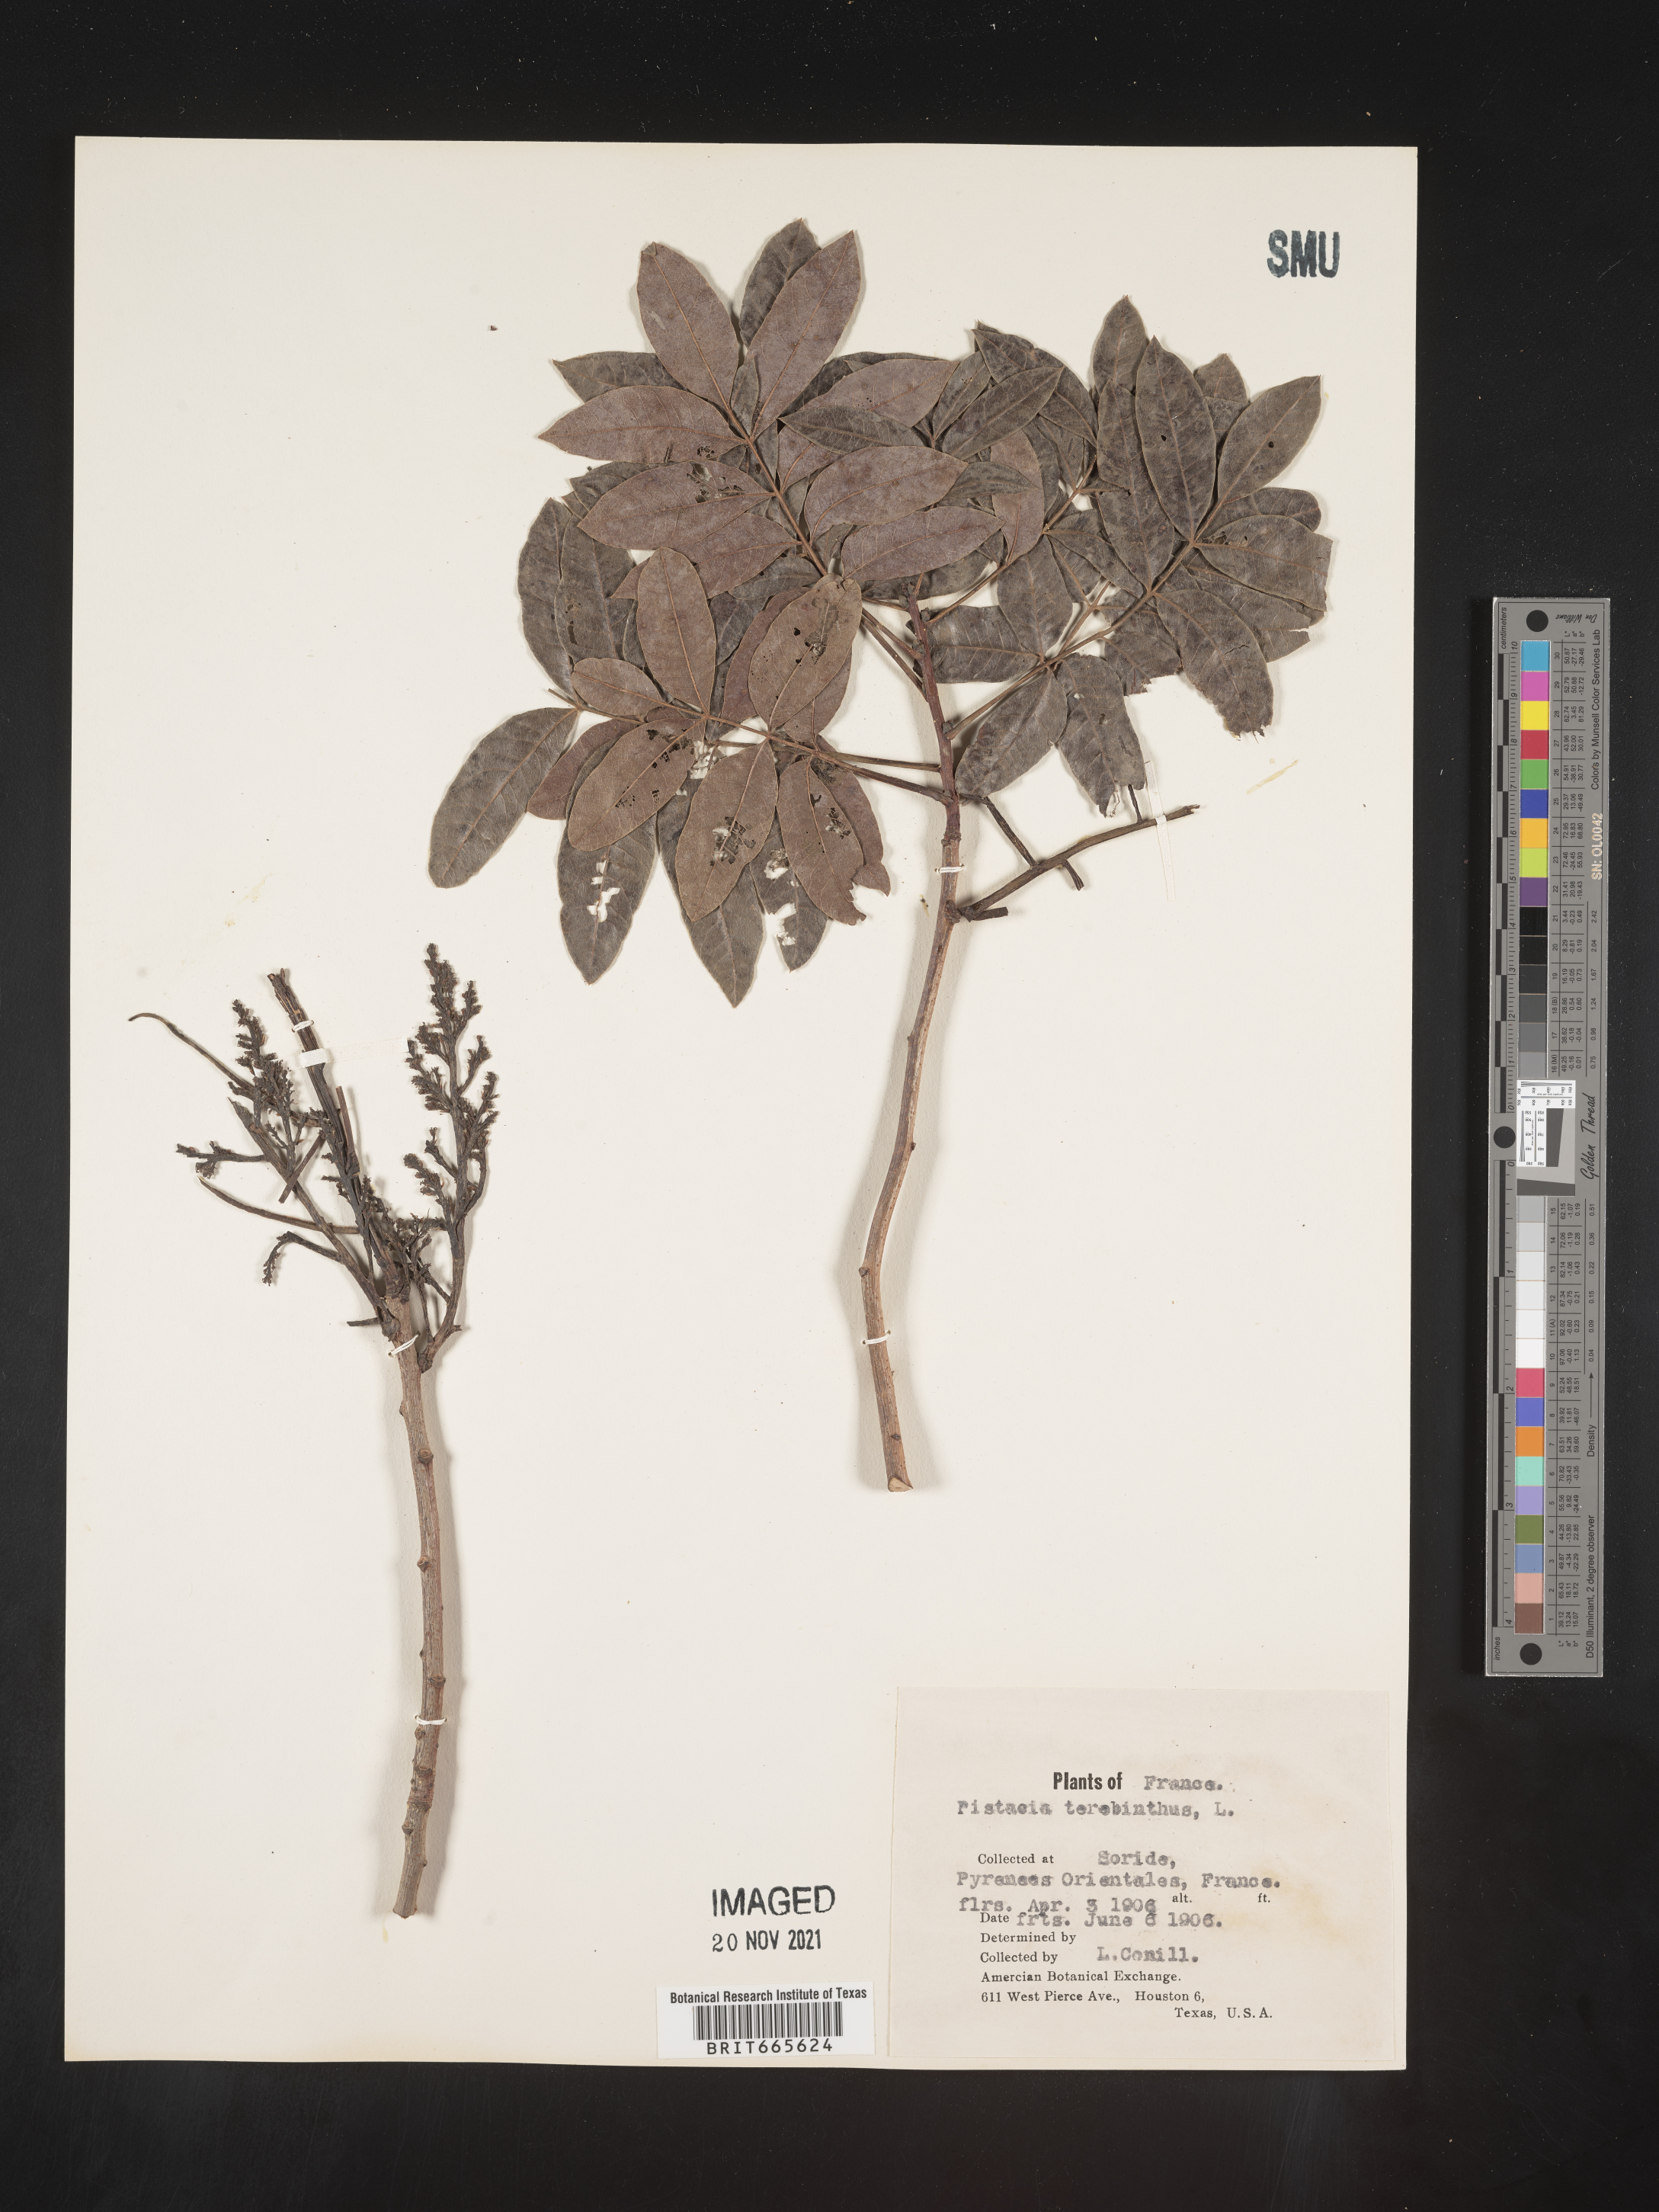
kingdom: Plantae
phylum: Tracheophyta
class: Magnoliopsida
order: Sapindales
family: Anacardiaceae
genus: Pistacia
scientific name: Pistacia
